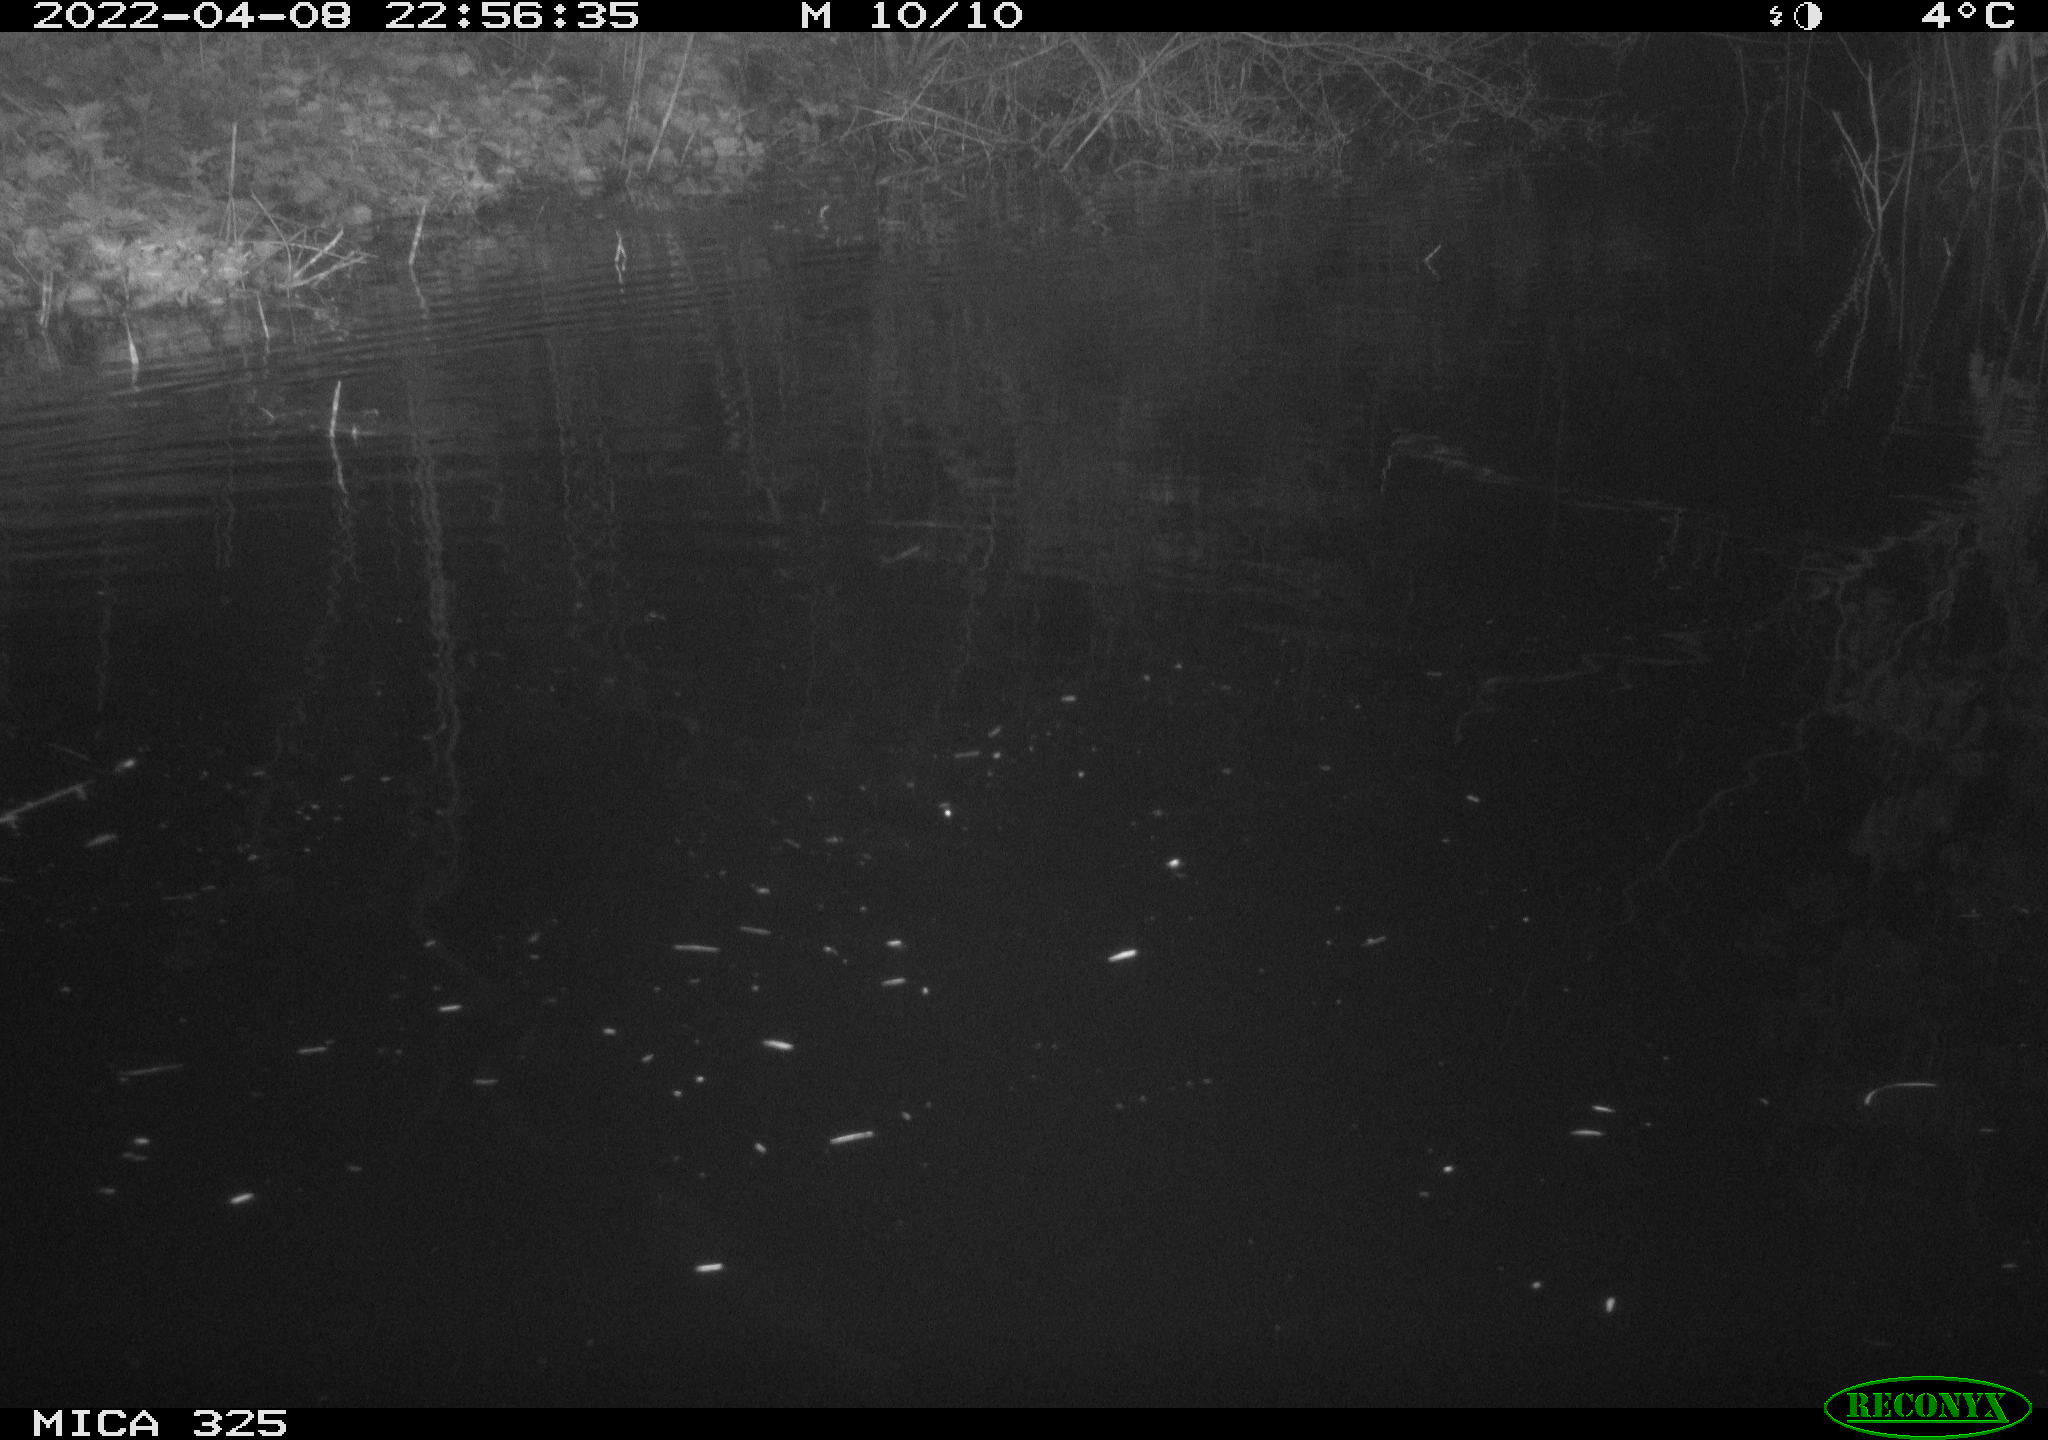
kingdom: Animalia
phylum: Chordata
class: Mammalia
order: Rodentia
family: Cricetidae
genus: Ondatra
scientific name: Ondatra zibethicus
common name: Muskrat
